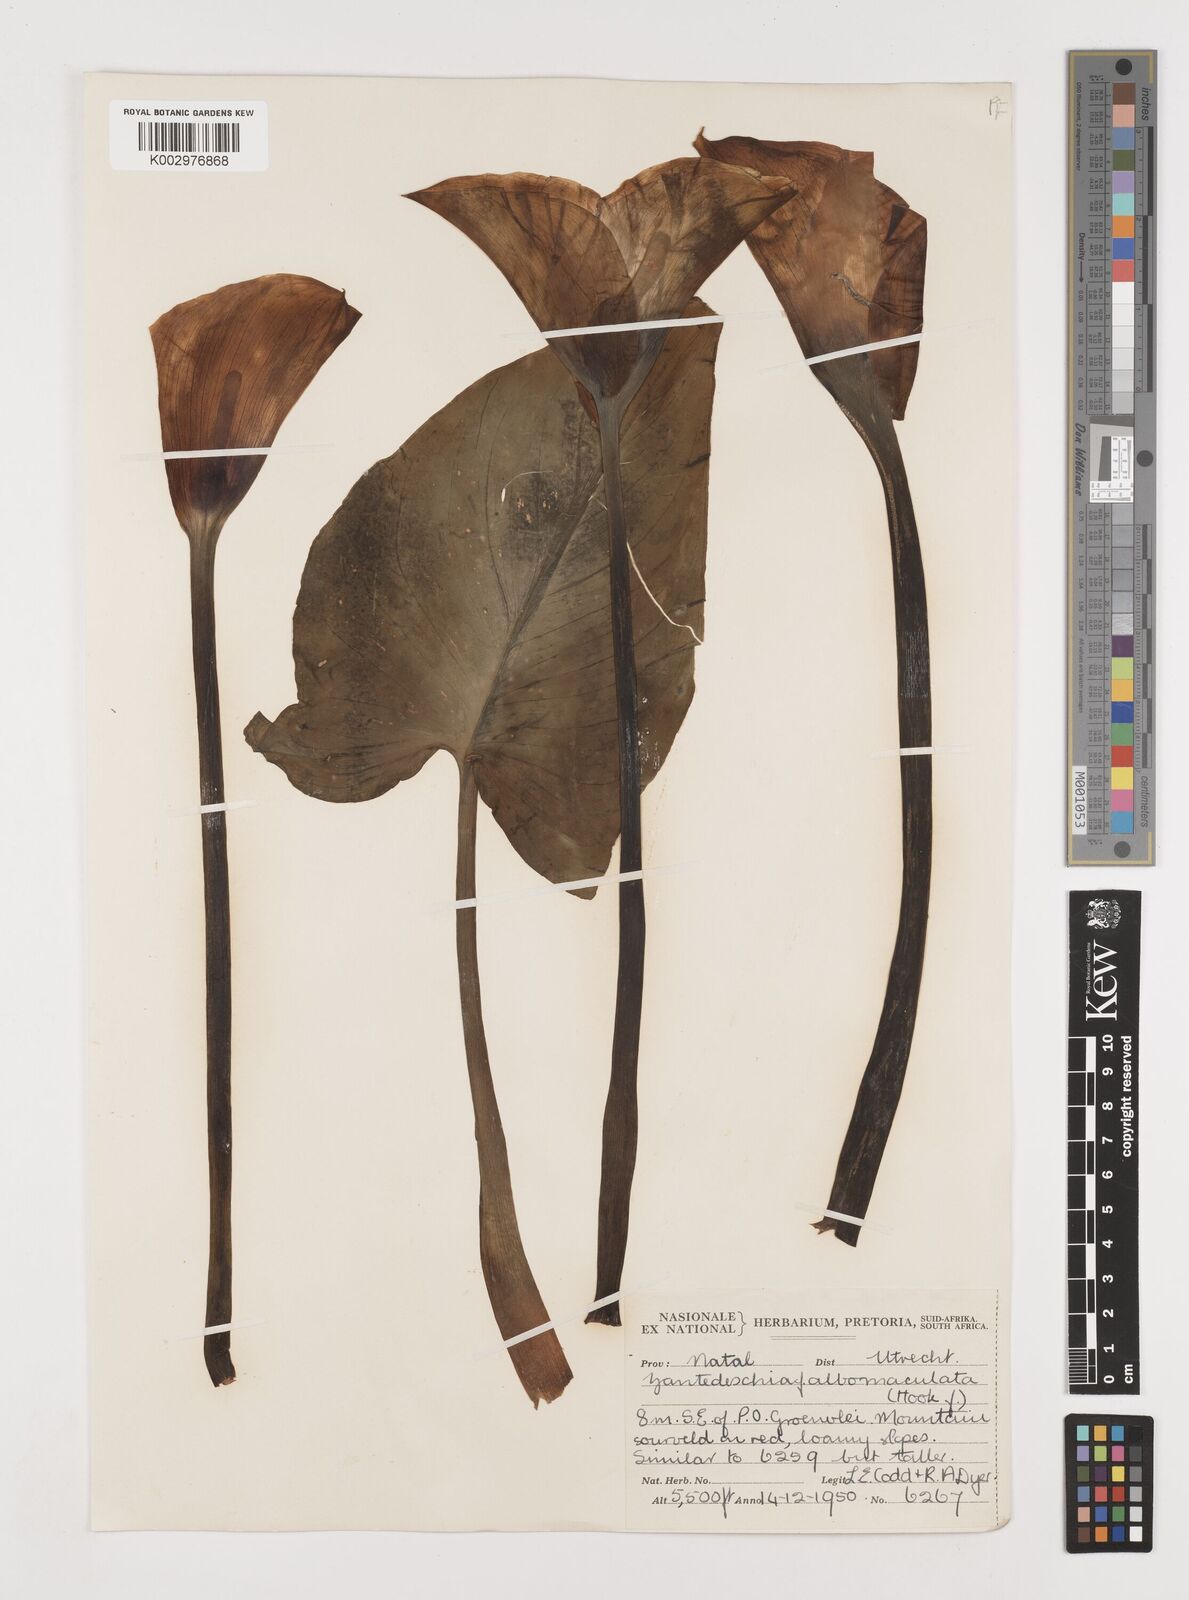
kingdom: Plantae
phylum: Tracheophyta
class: Liliopsida
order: Alismatales
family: Araceae
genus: Zantedeschia
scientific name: Zantedeschia albomaculata
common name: Spotted calla lily
